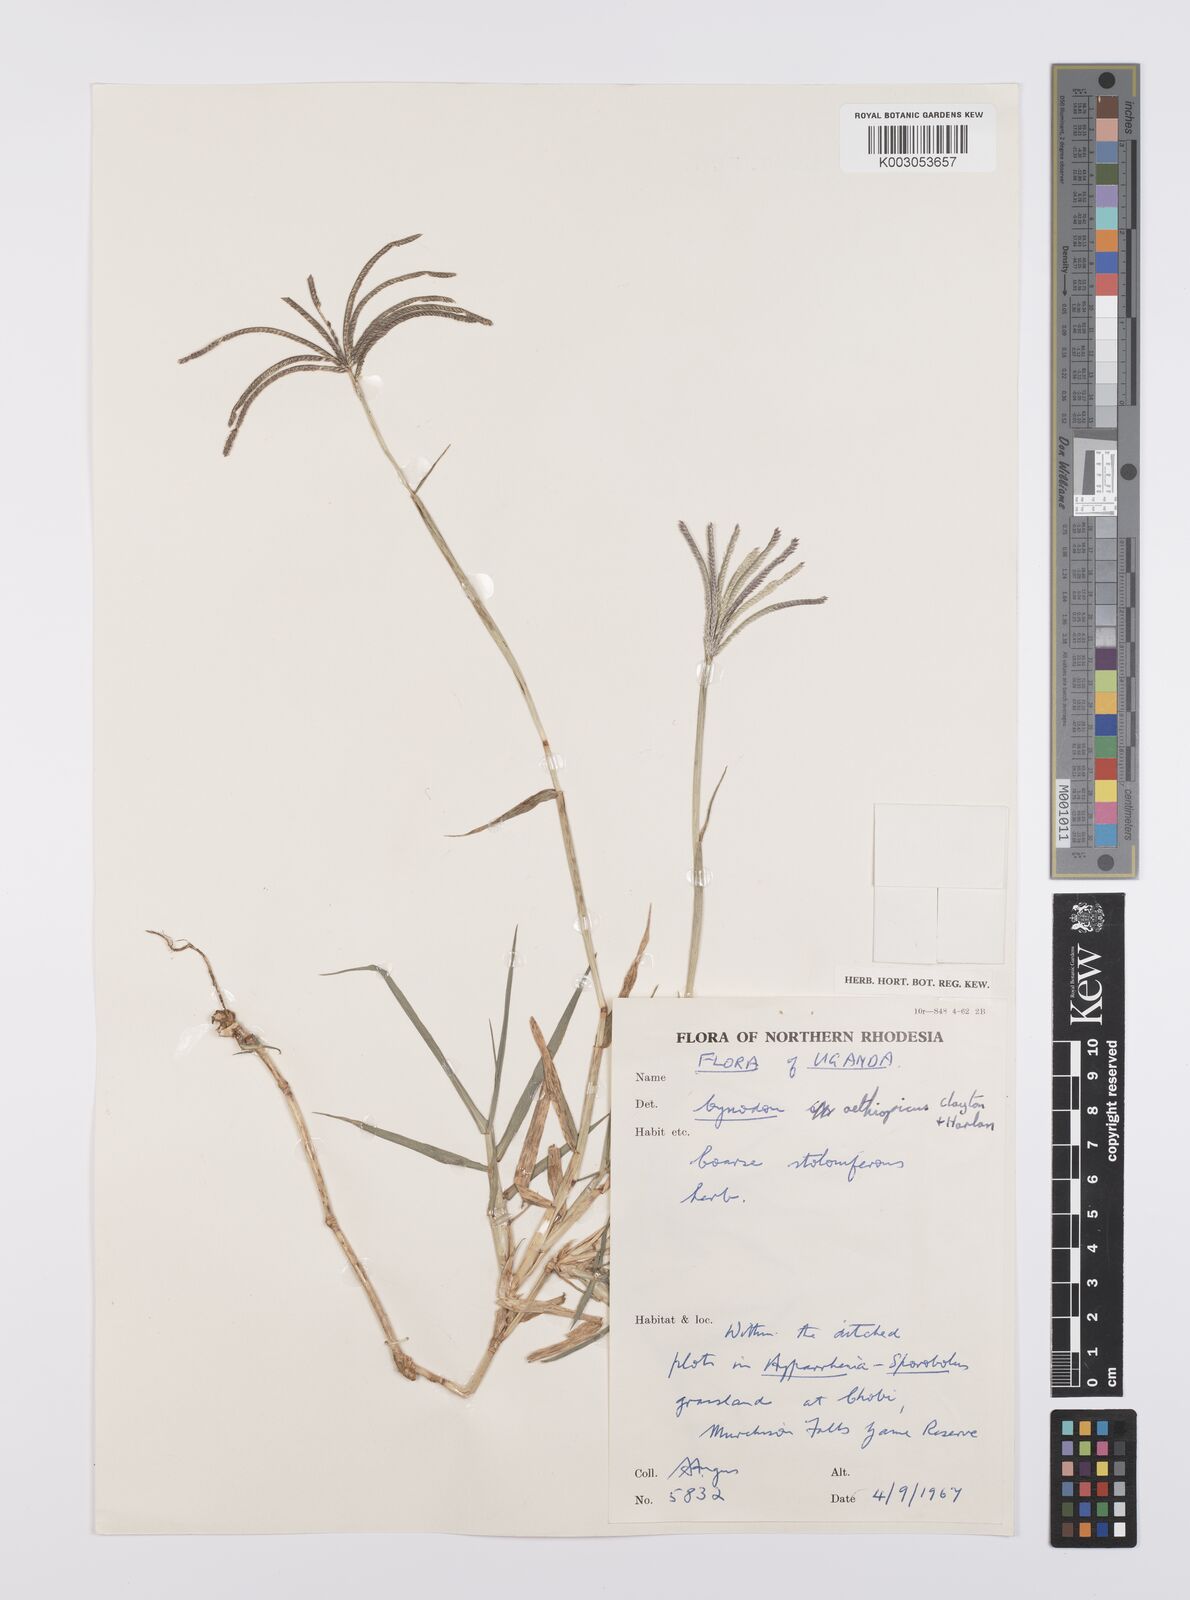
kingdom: Plantae
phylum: Tracheophyta
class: Liliopsida
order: Poales
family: Poaceae
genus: Cynodon
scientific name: Cynodon aethiopicus
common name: Ethiopian dogstooth grass
